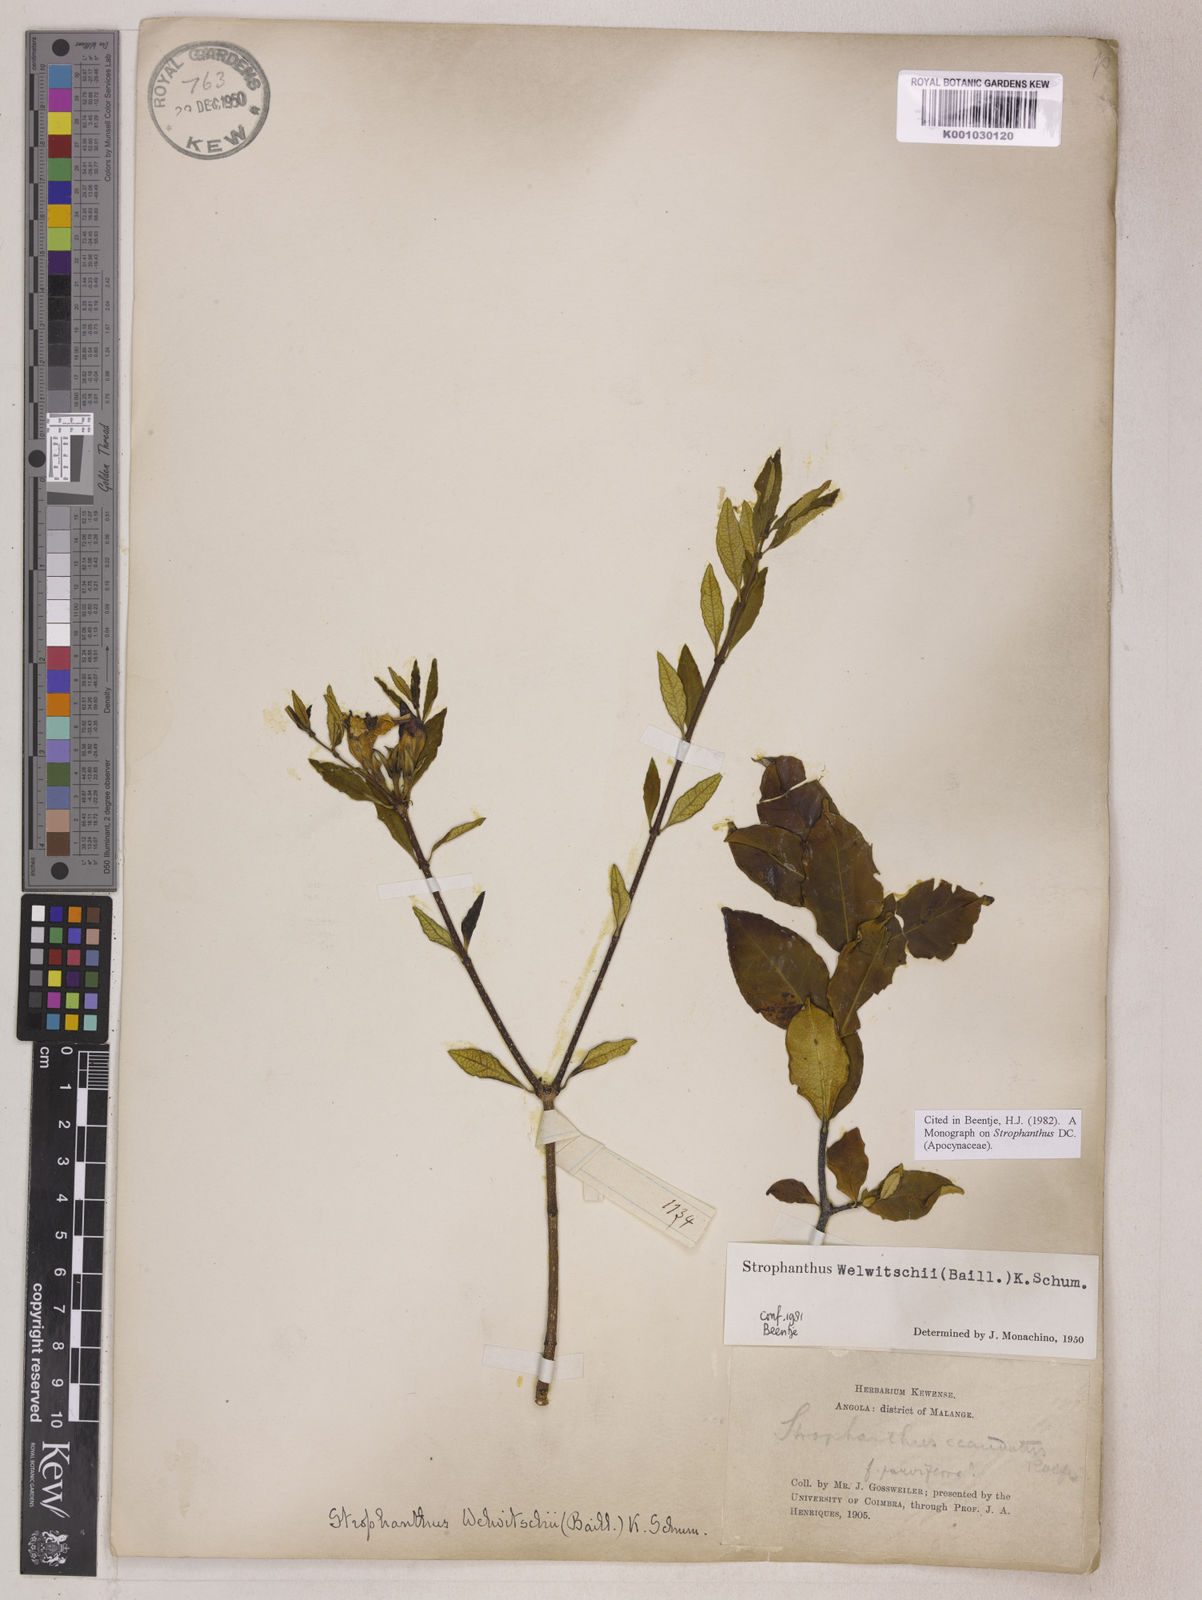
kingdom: Plantae
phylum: Tracheophyta
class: Magnoliopsida
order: Gentianales
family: Apocynaceae
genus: Strophanthus
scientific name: Strophanthus welwitschii
